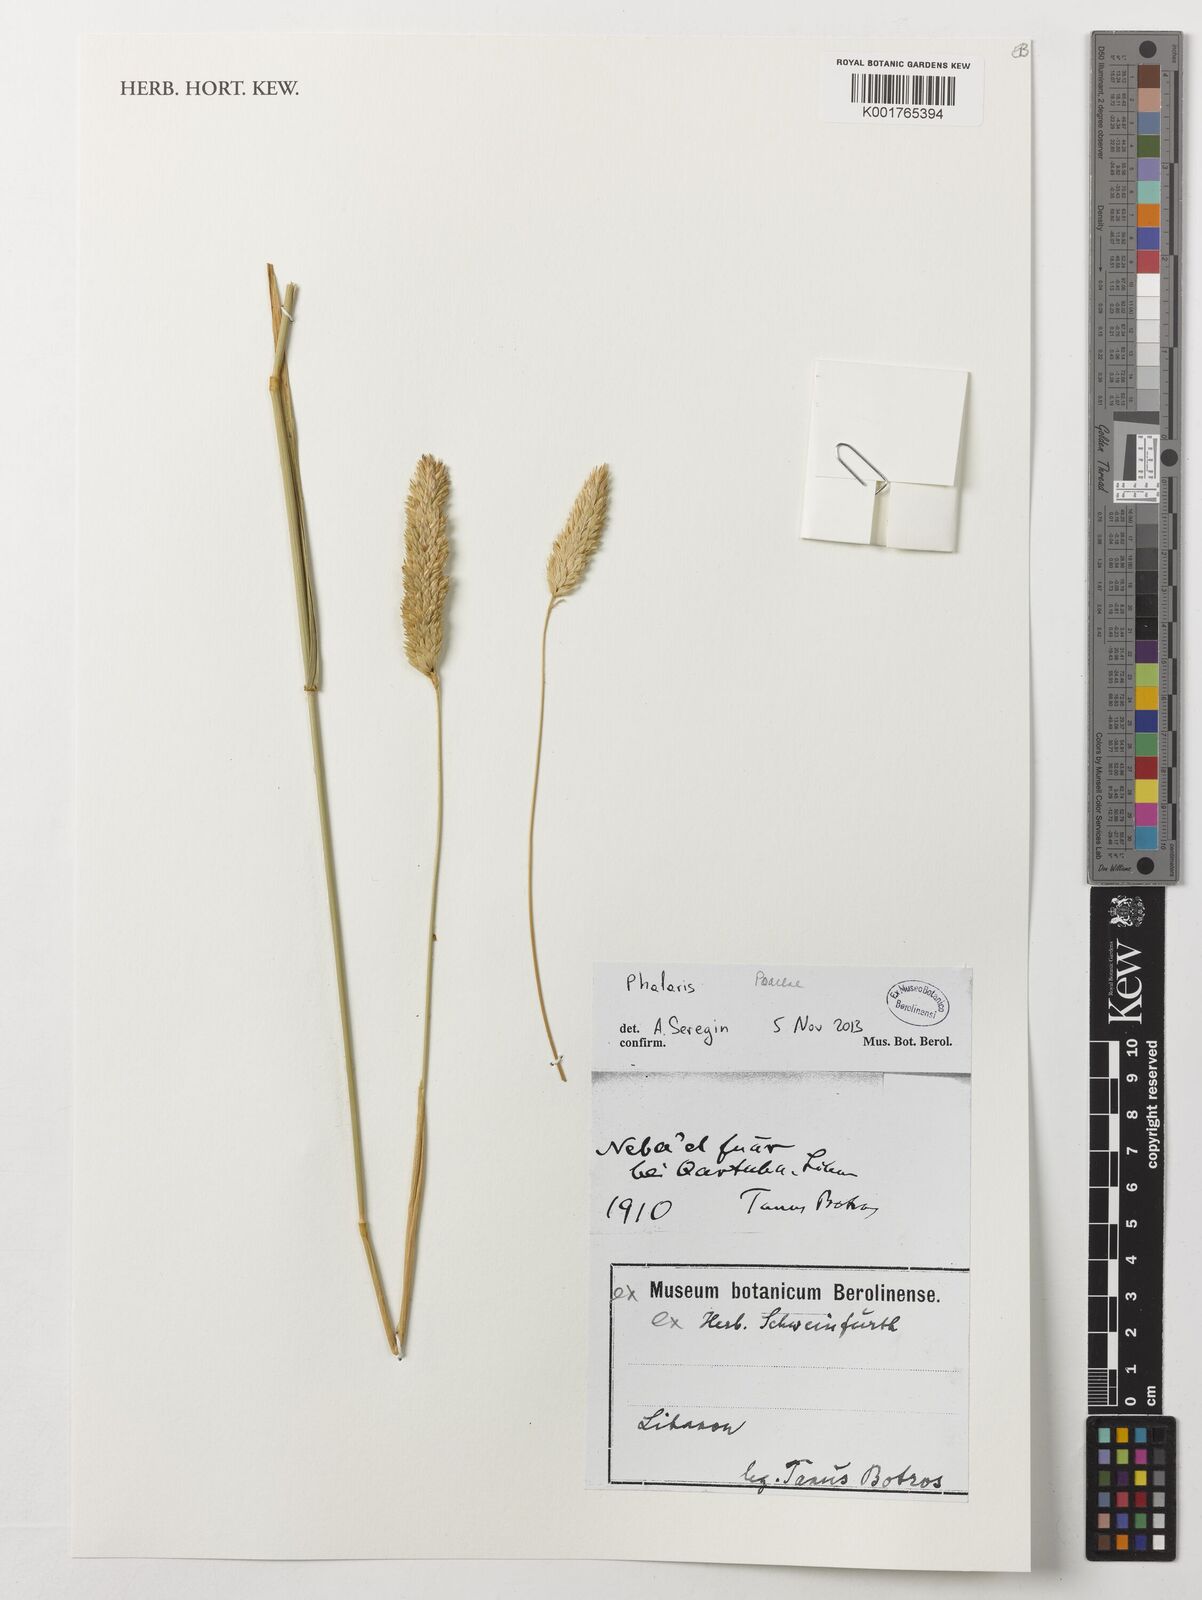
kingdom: Plantae
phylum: Tracheophyta
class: Liliopsida
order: Poales
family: Poaceae
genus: Phalaris
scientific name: Phalaris
